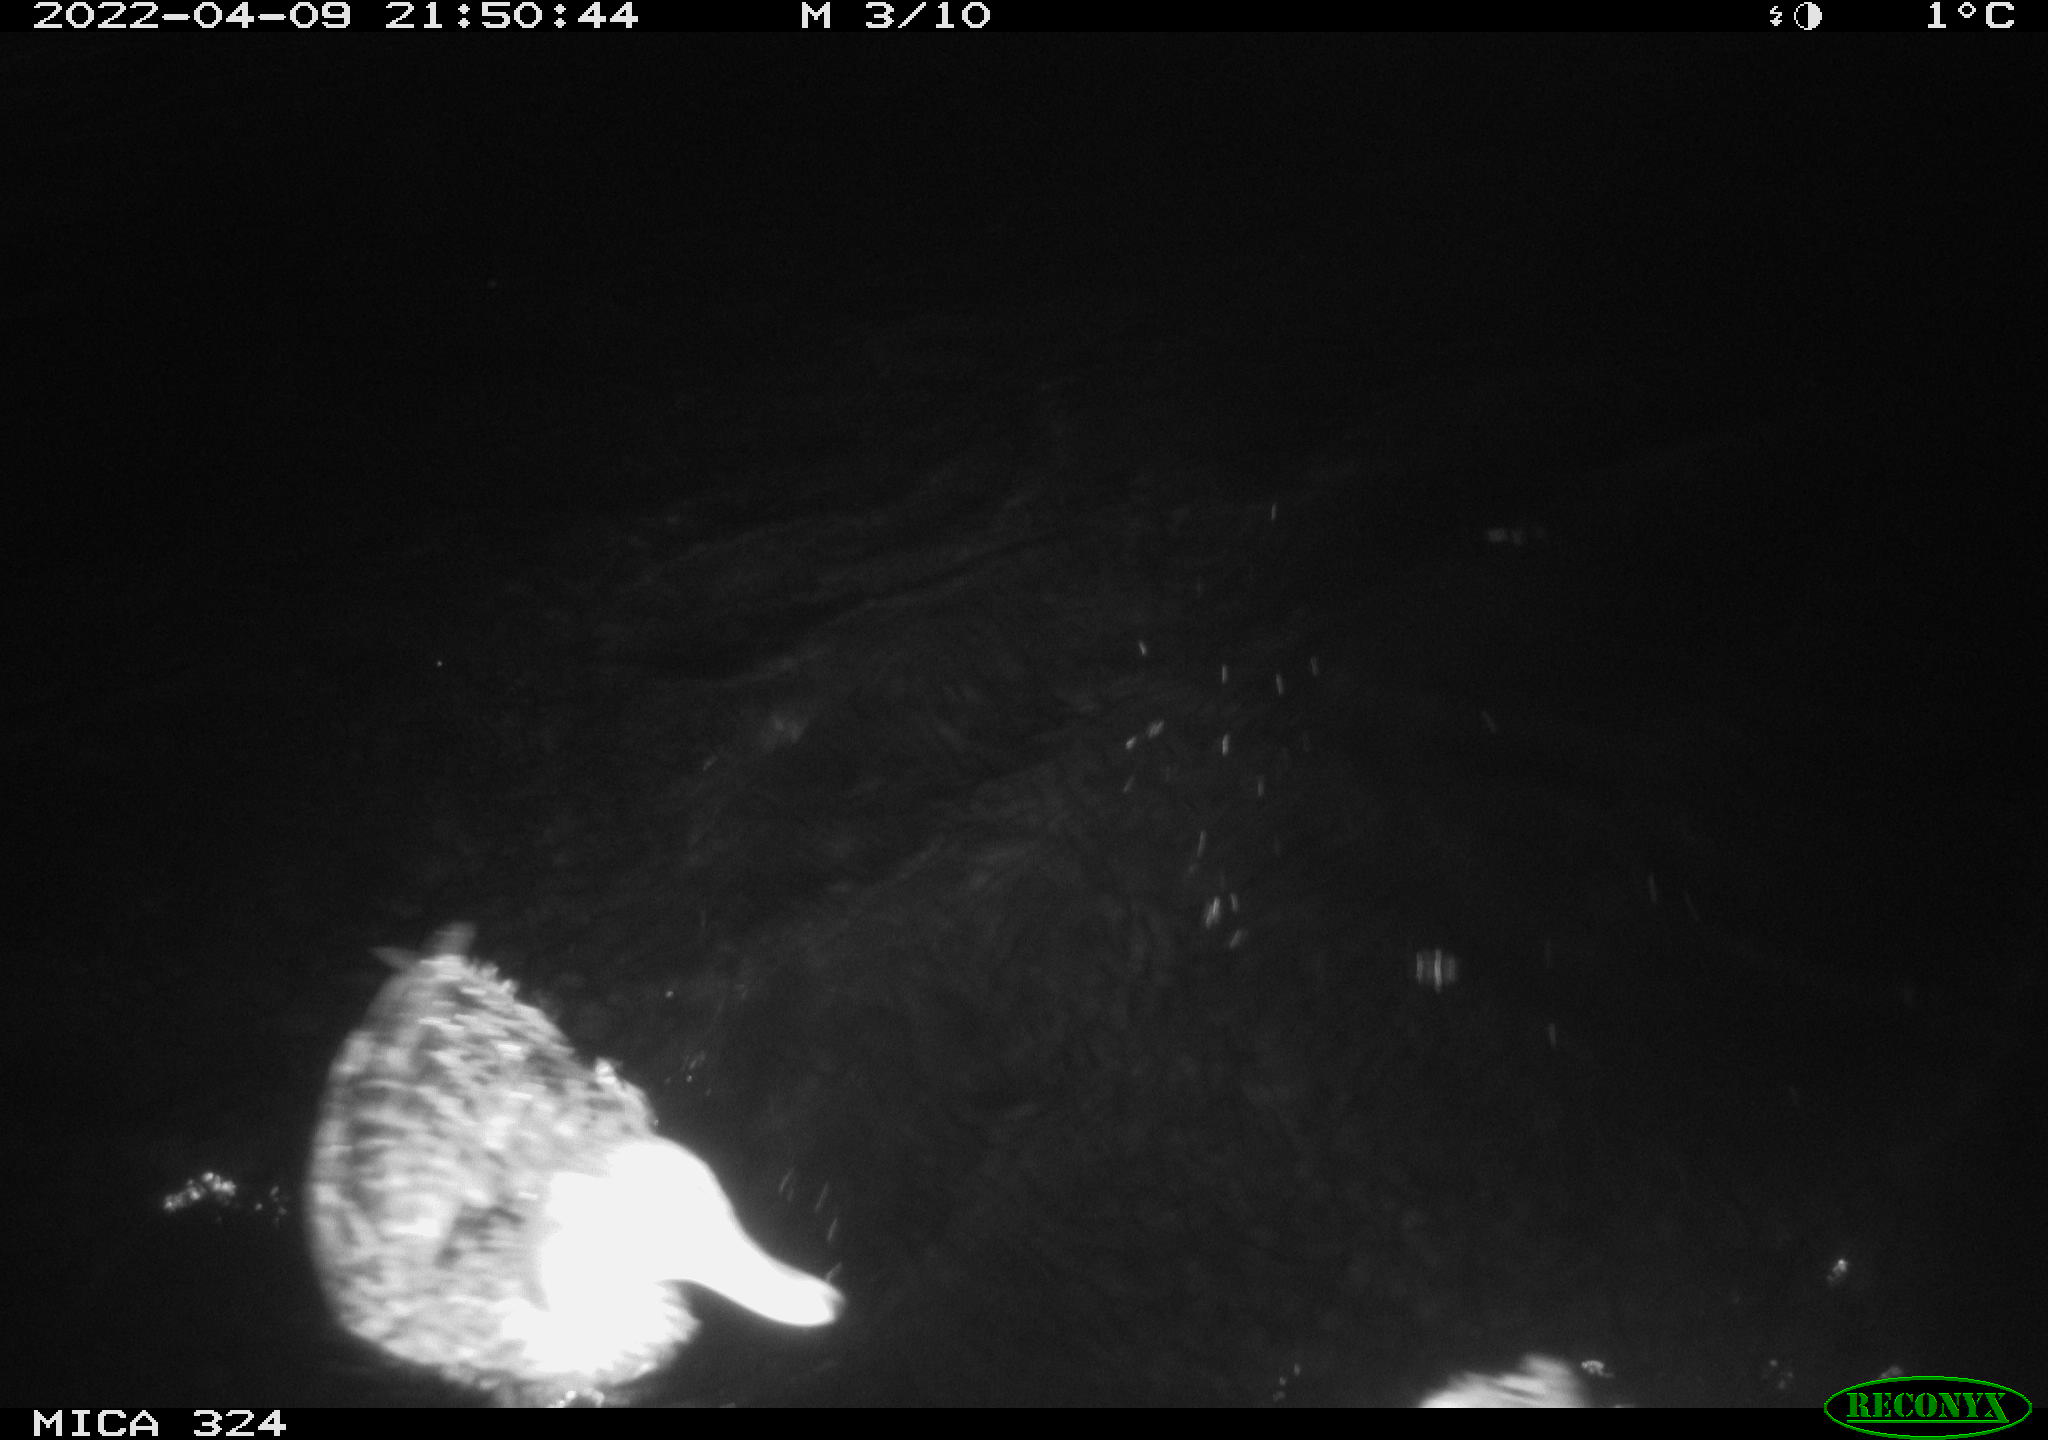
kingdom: Animalia
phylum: Chordata
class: Aves
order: Anseriformes
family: Anatidae
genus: Anas
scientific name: Anas platyrhynchos
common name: Mallard
